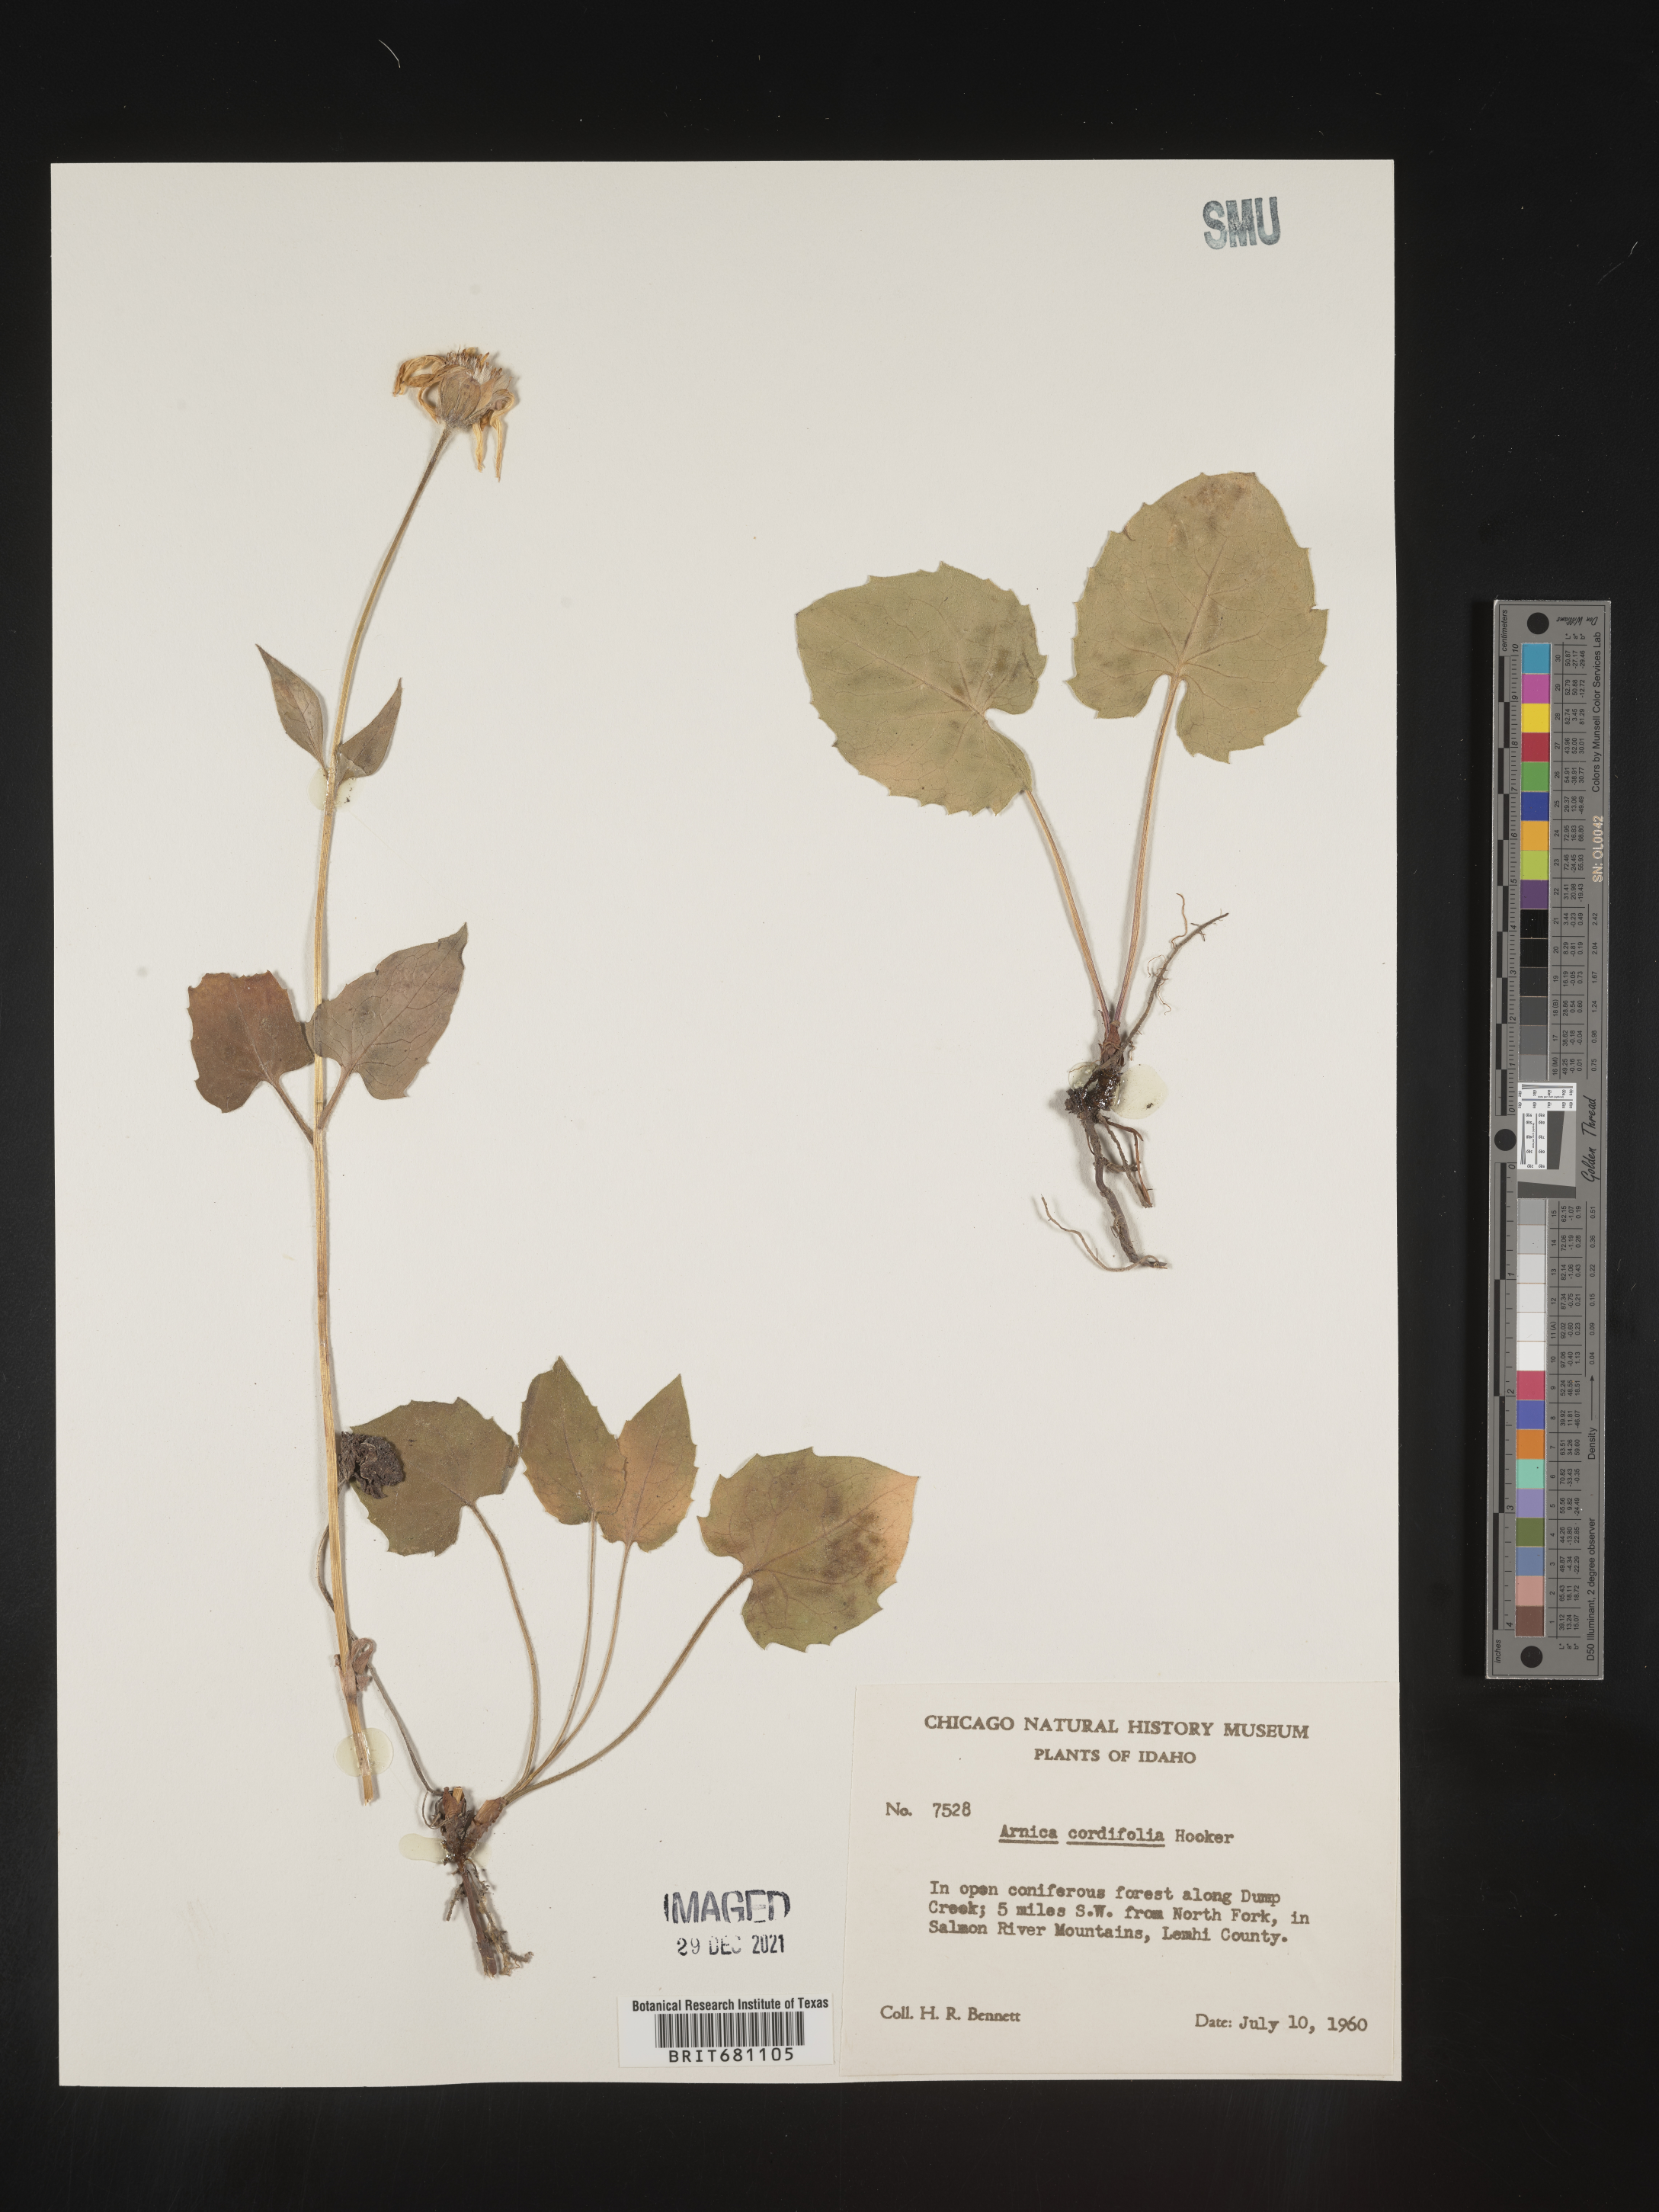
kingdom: Plantae
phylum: Tracheophyta
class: Magnoliopsida
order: Asterales
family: Asteraceae
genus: Arnica
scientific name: Arnica cordifolia
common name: Heart-leaf arnica
